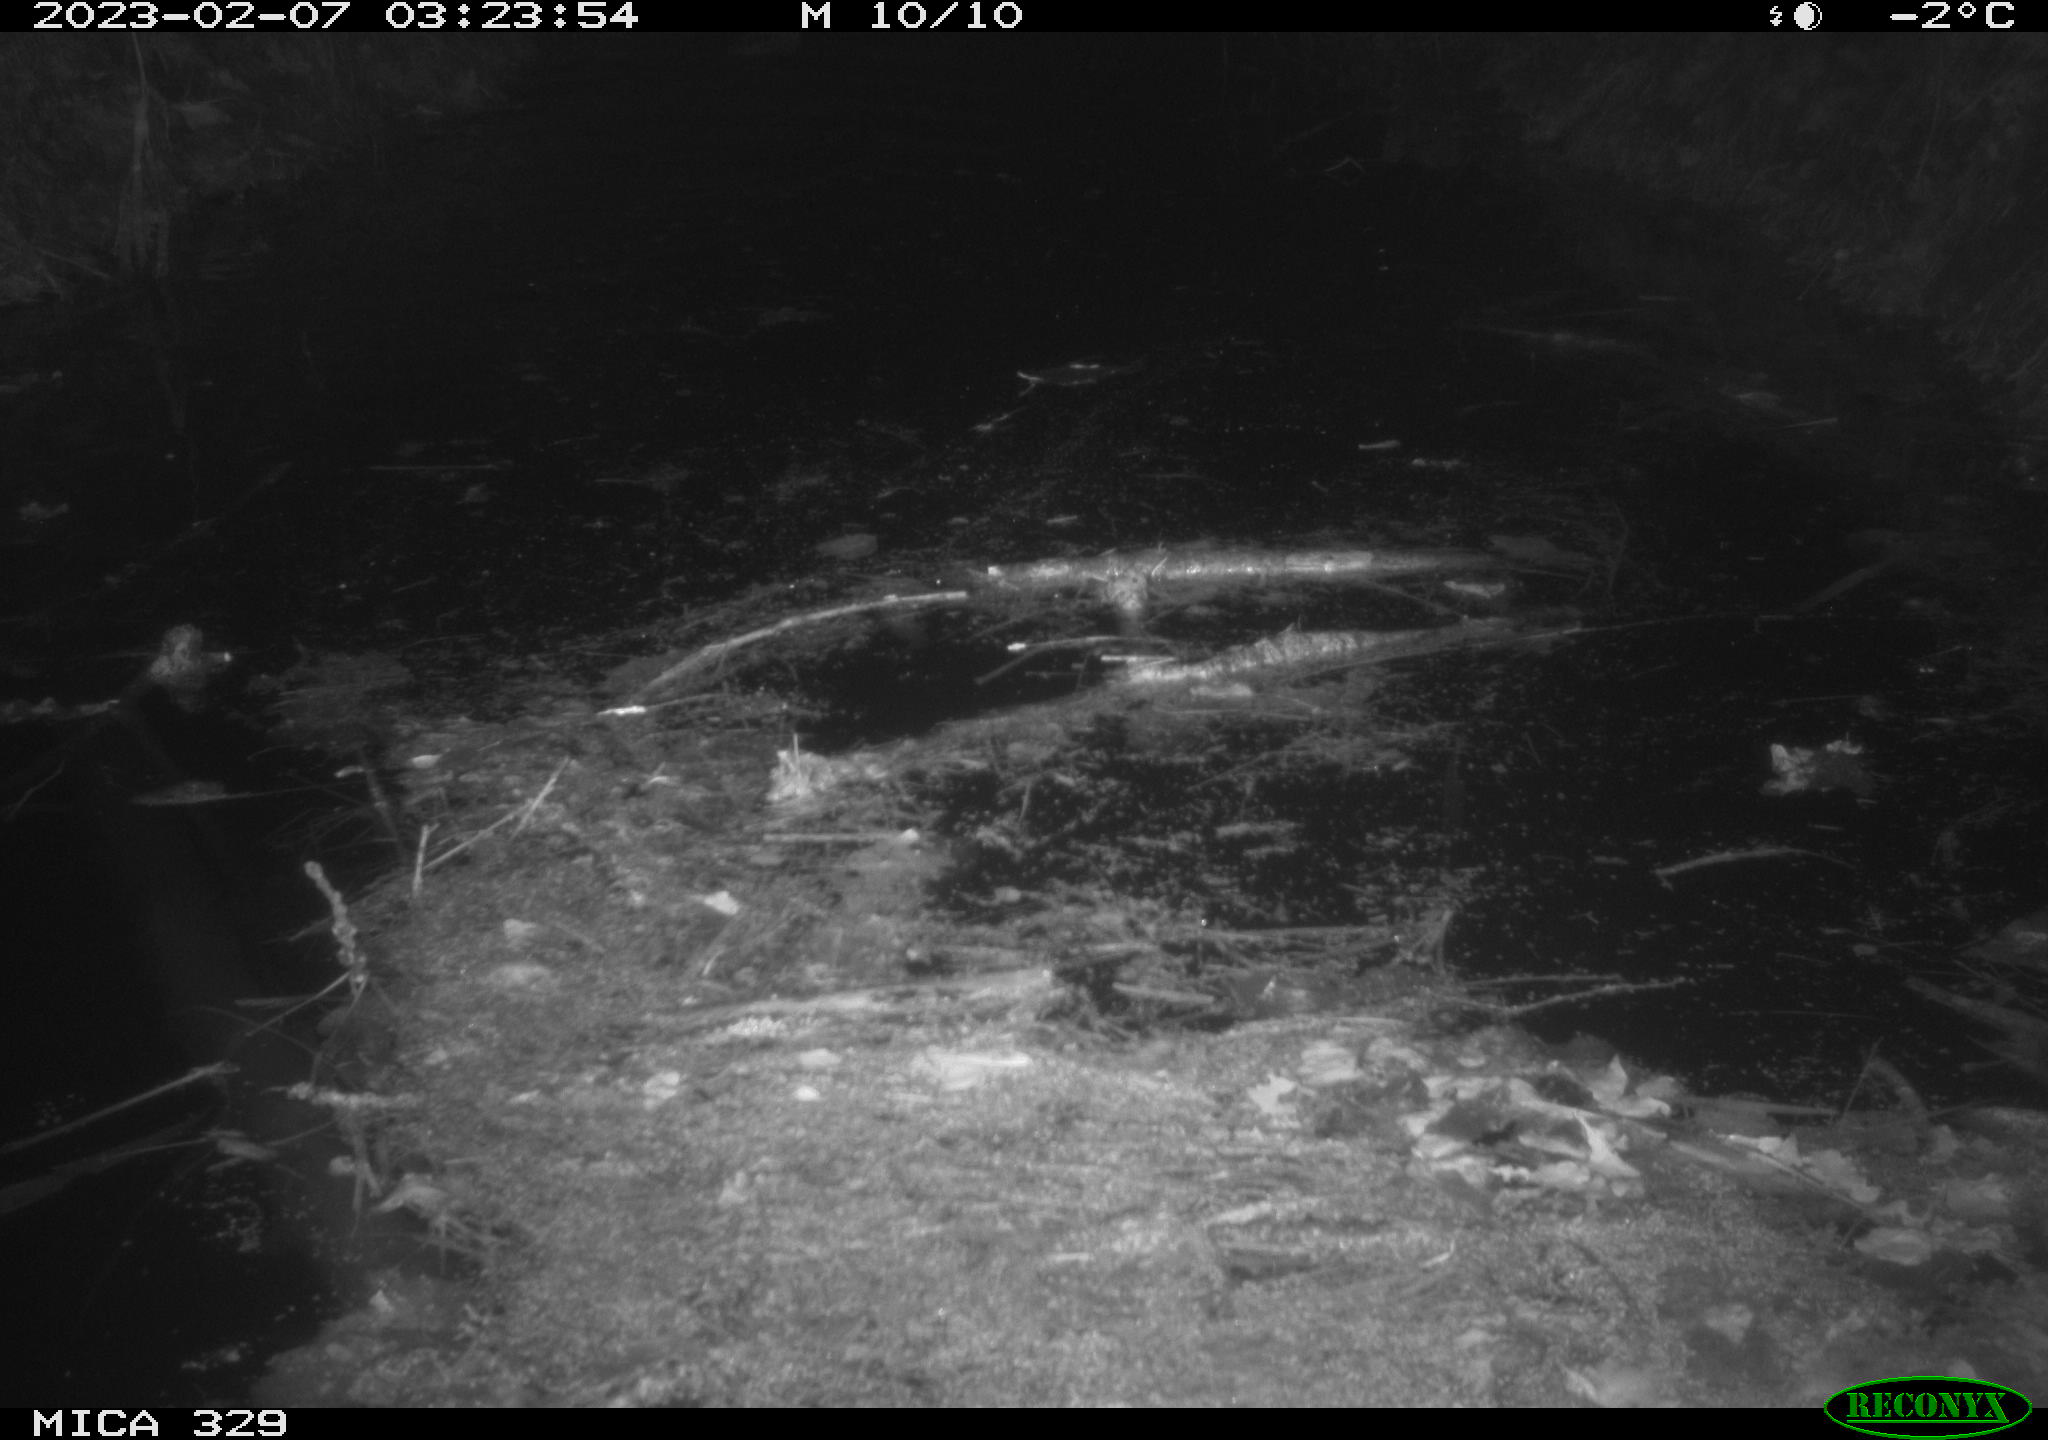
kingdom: Animalia
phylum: Chordata
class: Mammalia
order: Rodentia
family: Cricetidae
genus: Ondatra
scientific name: Ondatra zibethicus
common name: Muskrat
